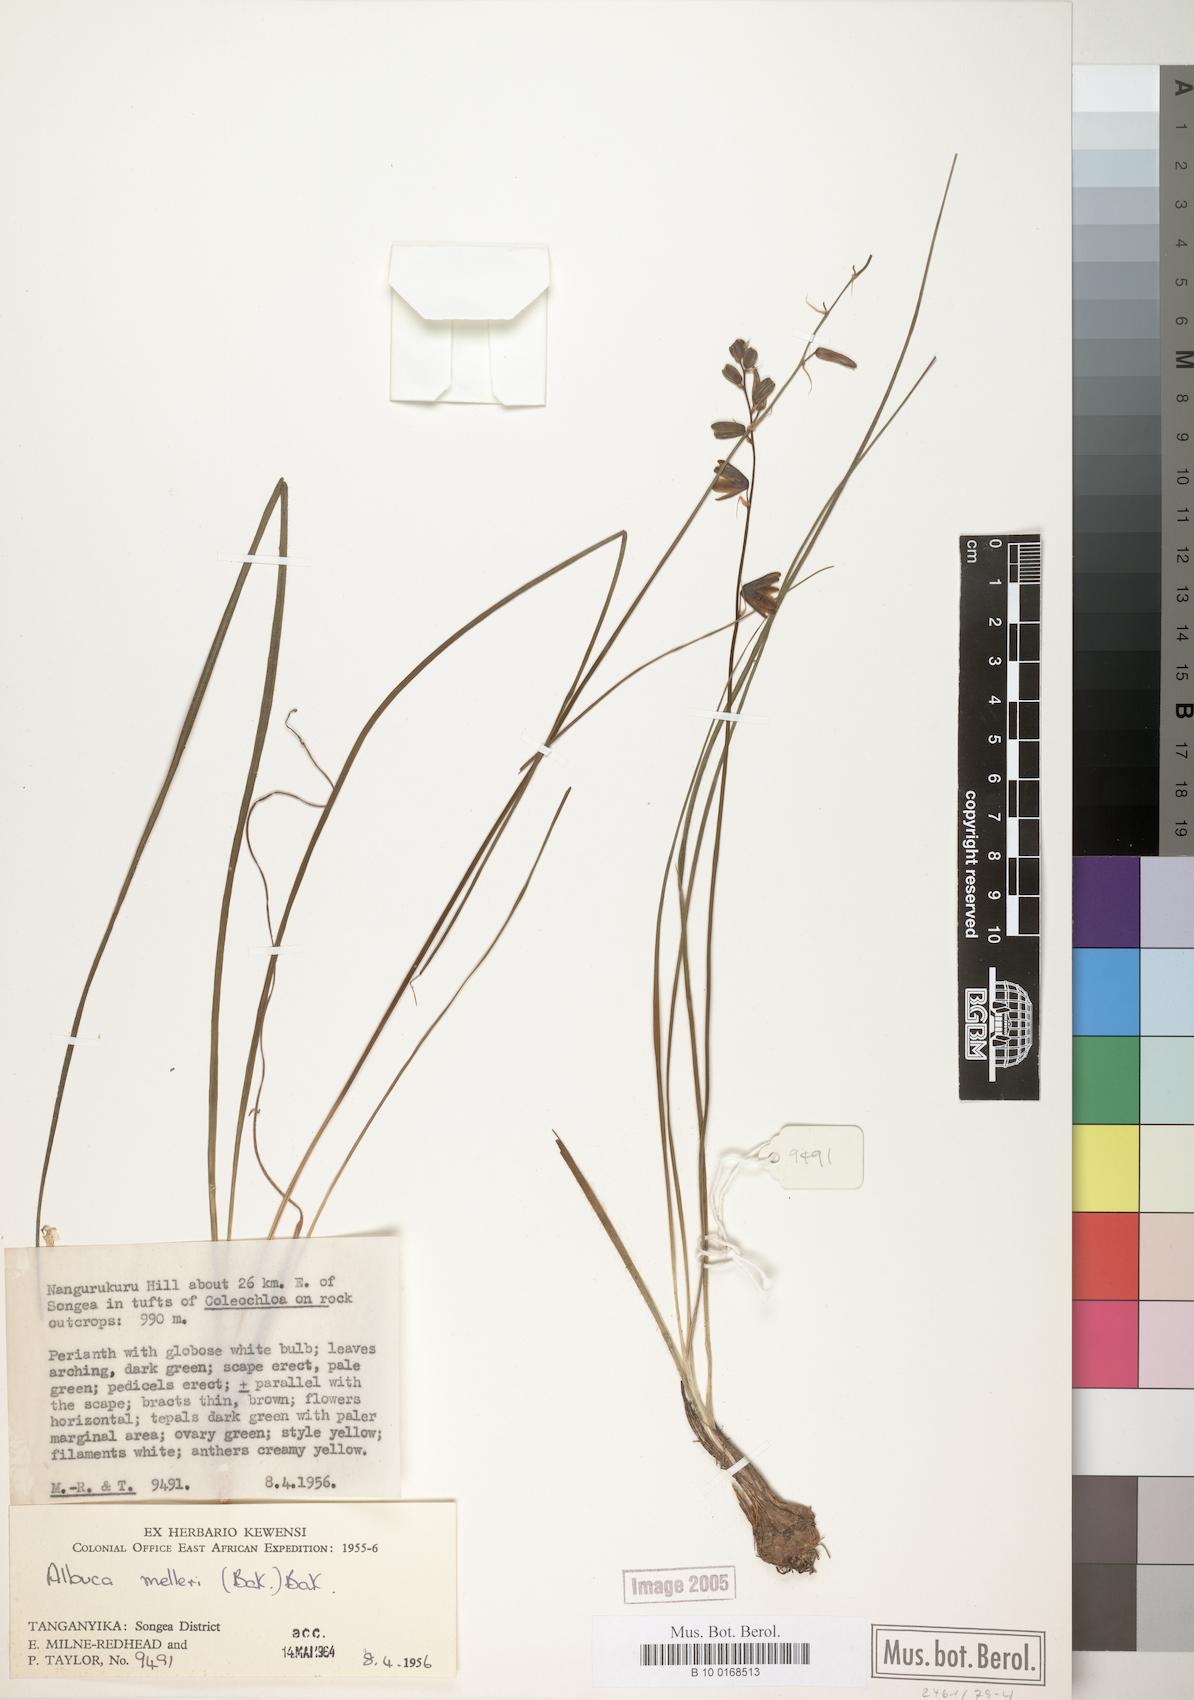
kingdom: Plantae
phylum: Tracheophyta
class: Liliopsida
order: Asparagales
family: Asparagaceae
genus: Albuca
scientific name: Albuca abyssinica
